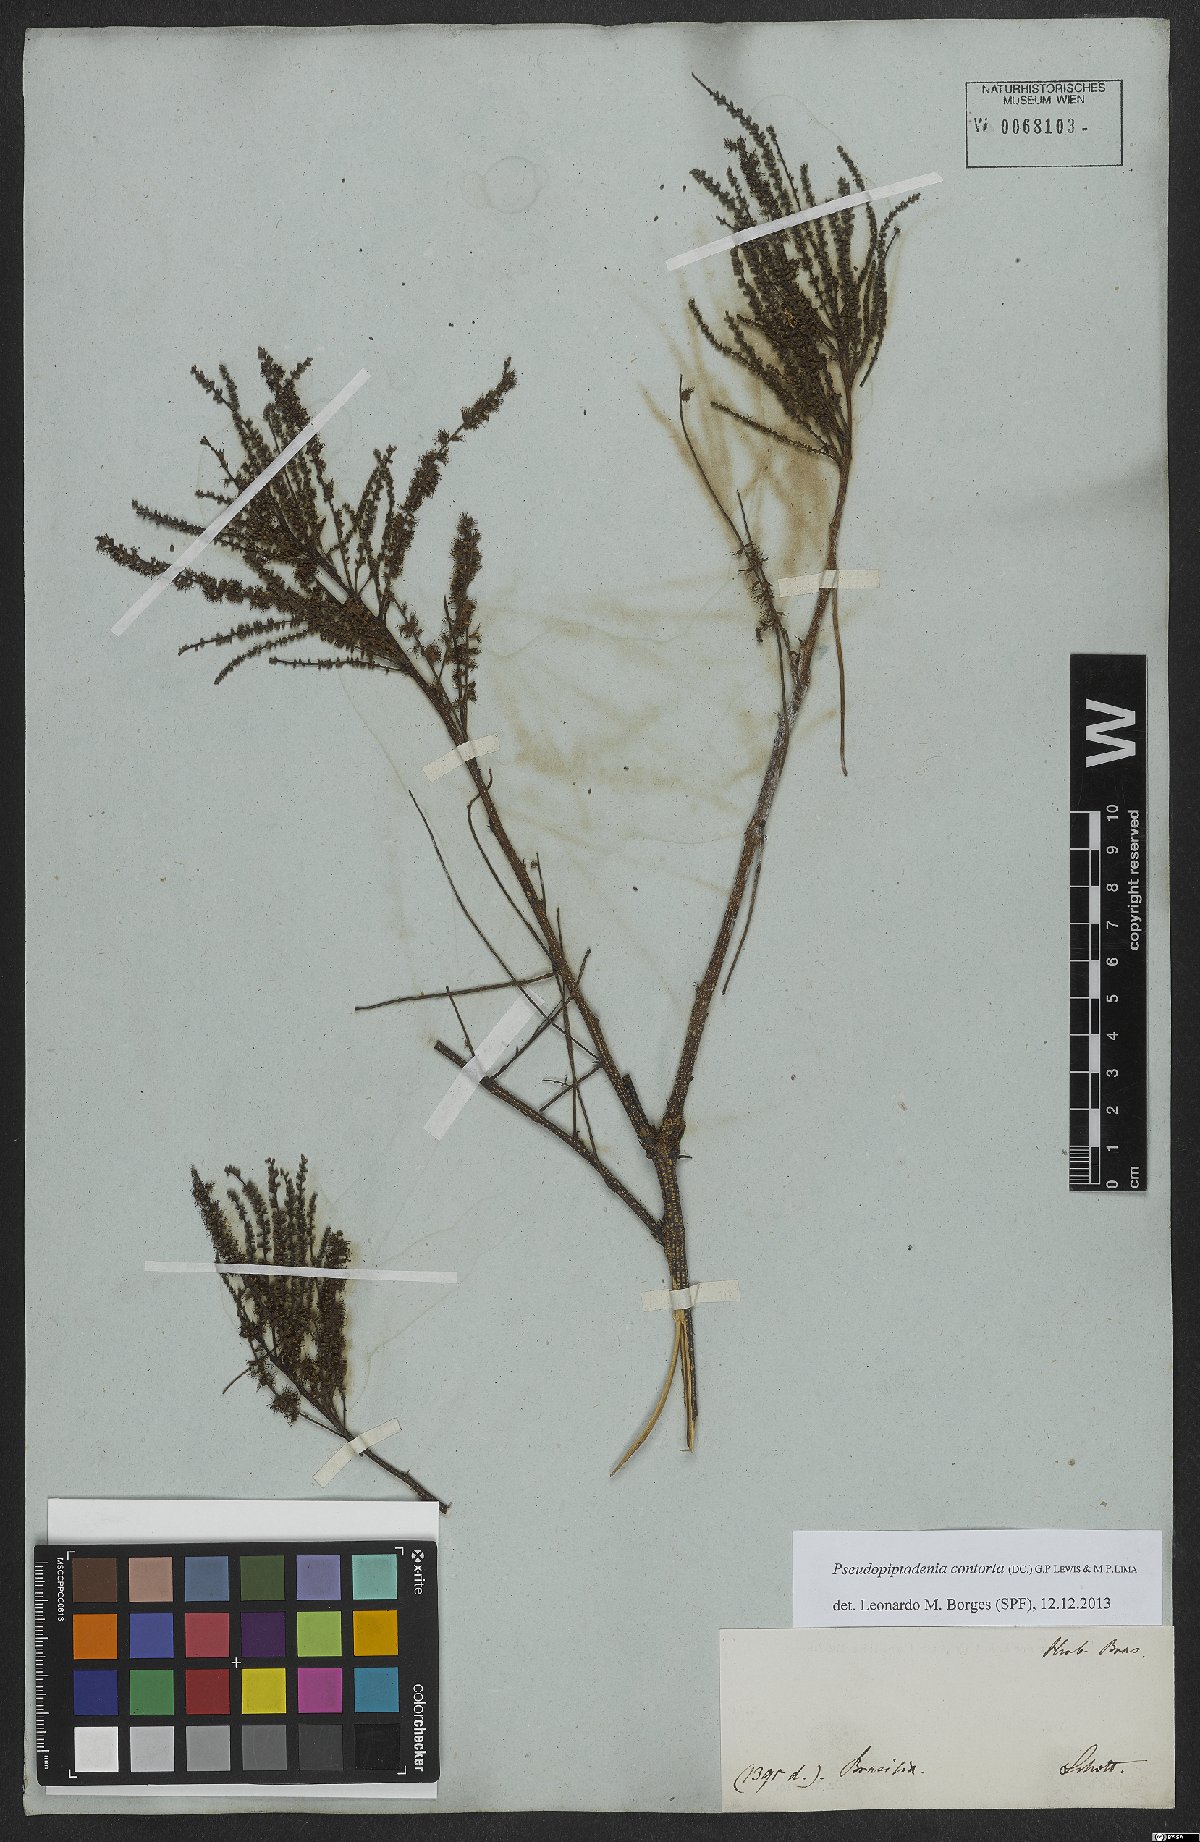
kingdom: Plantae
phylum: Tracheophyta
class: Magnoliopsida
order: Fabales
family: Fabaceae
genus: Pseudopiptadenia
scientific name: Pseudopiptadenia contorta
